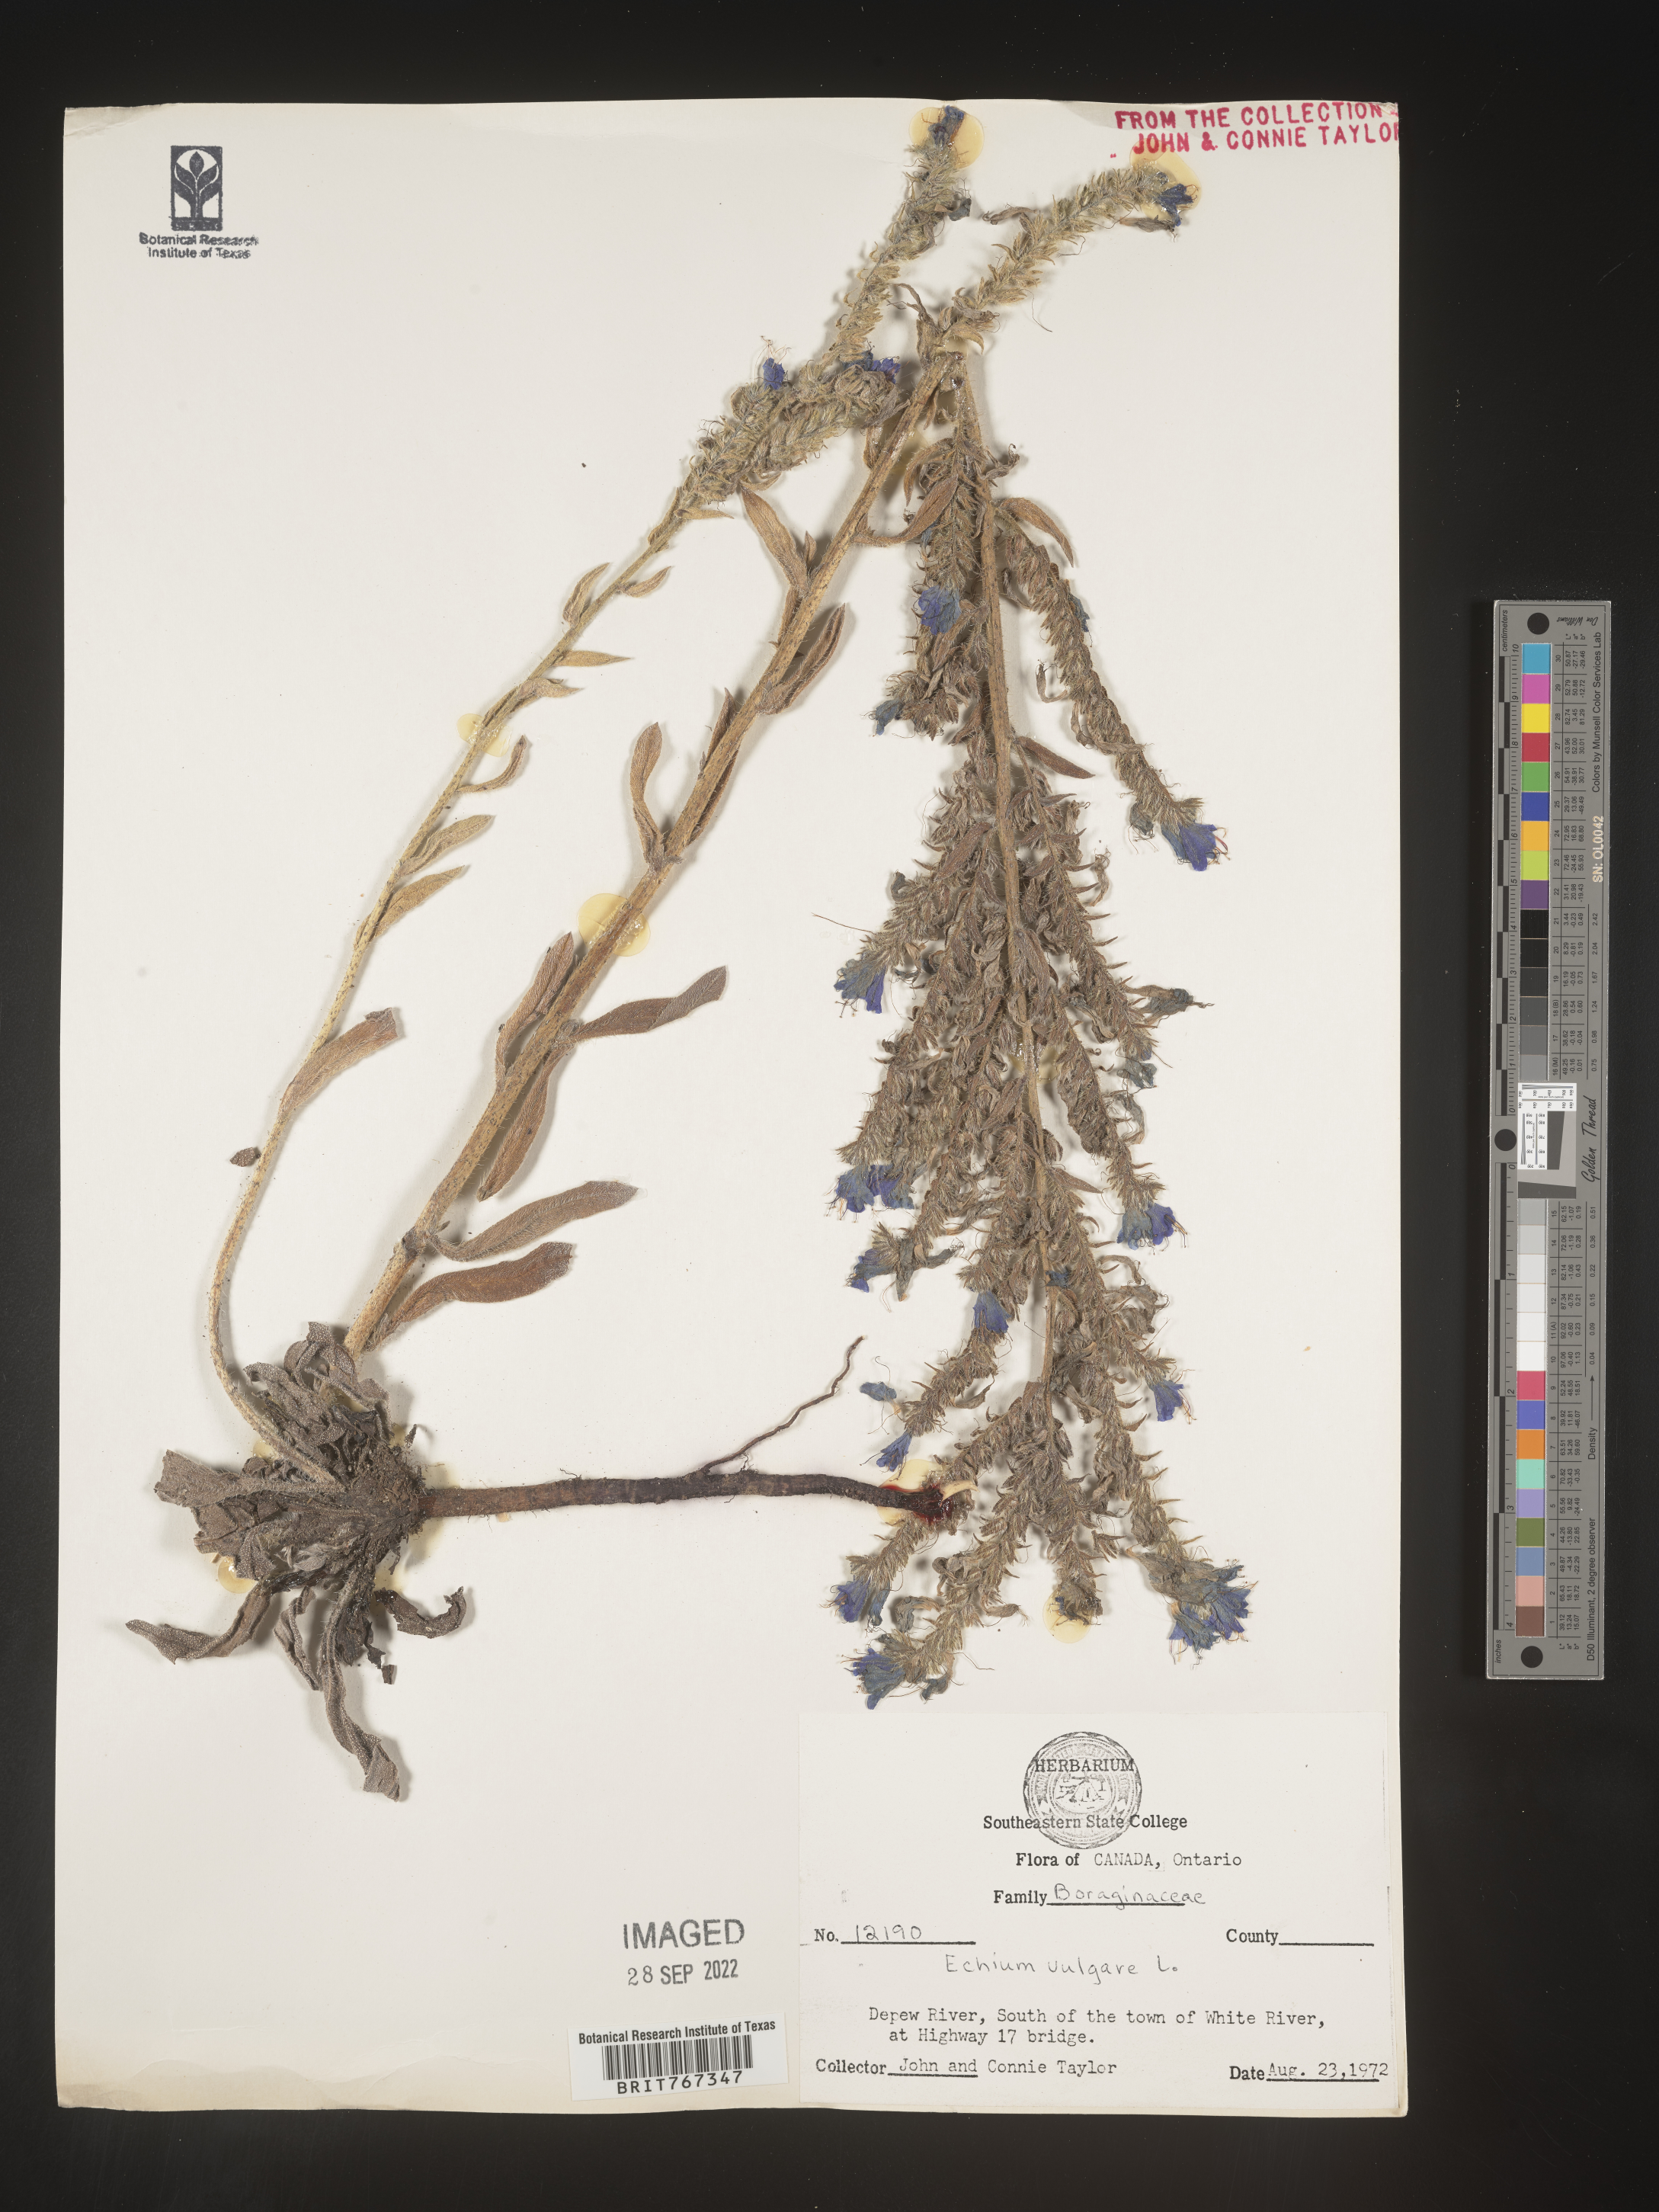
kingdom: Plantae
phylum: Tracheophyta
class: Magnoliopsida
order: Boraginales
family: Boraginaceae
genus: Echium
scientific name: Echium
